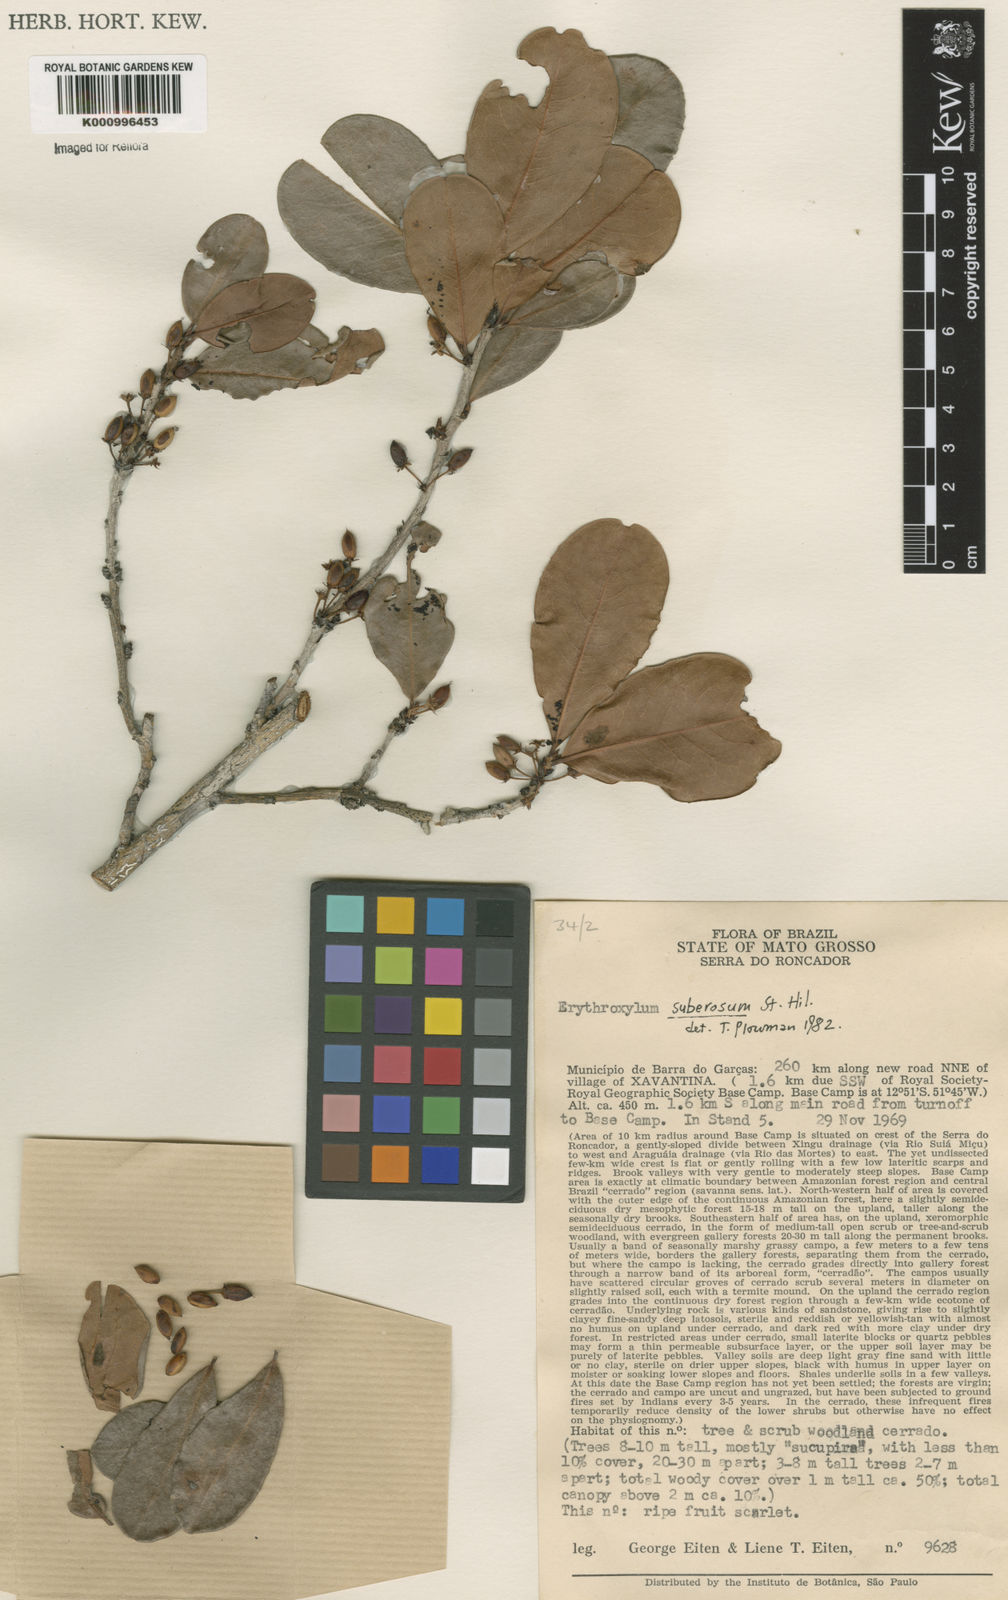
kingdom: Plantae
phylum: Tracheophyta
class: Magnoliopsida
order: Malpighiales
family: Erythroxylaceae
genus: Erythroxylum
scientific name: Erythroxylum suberosum
